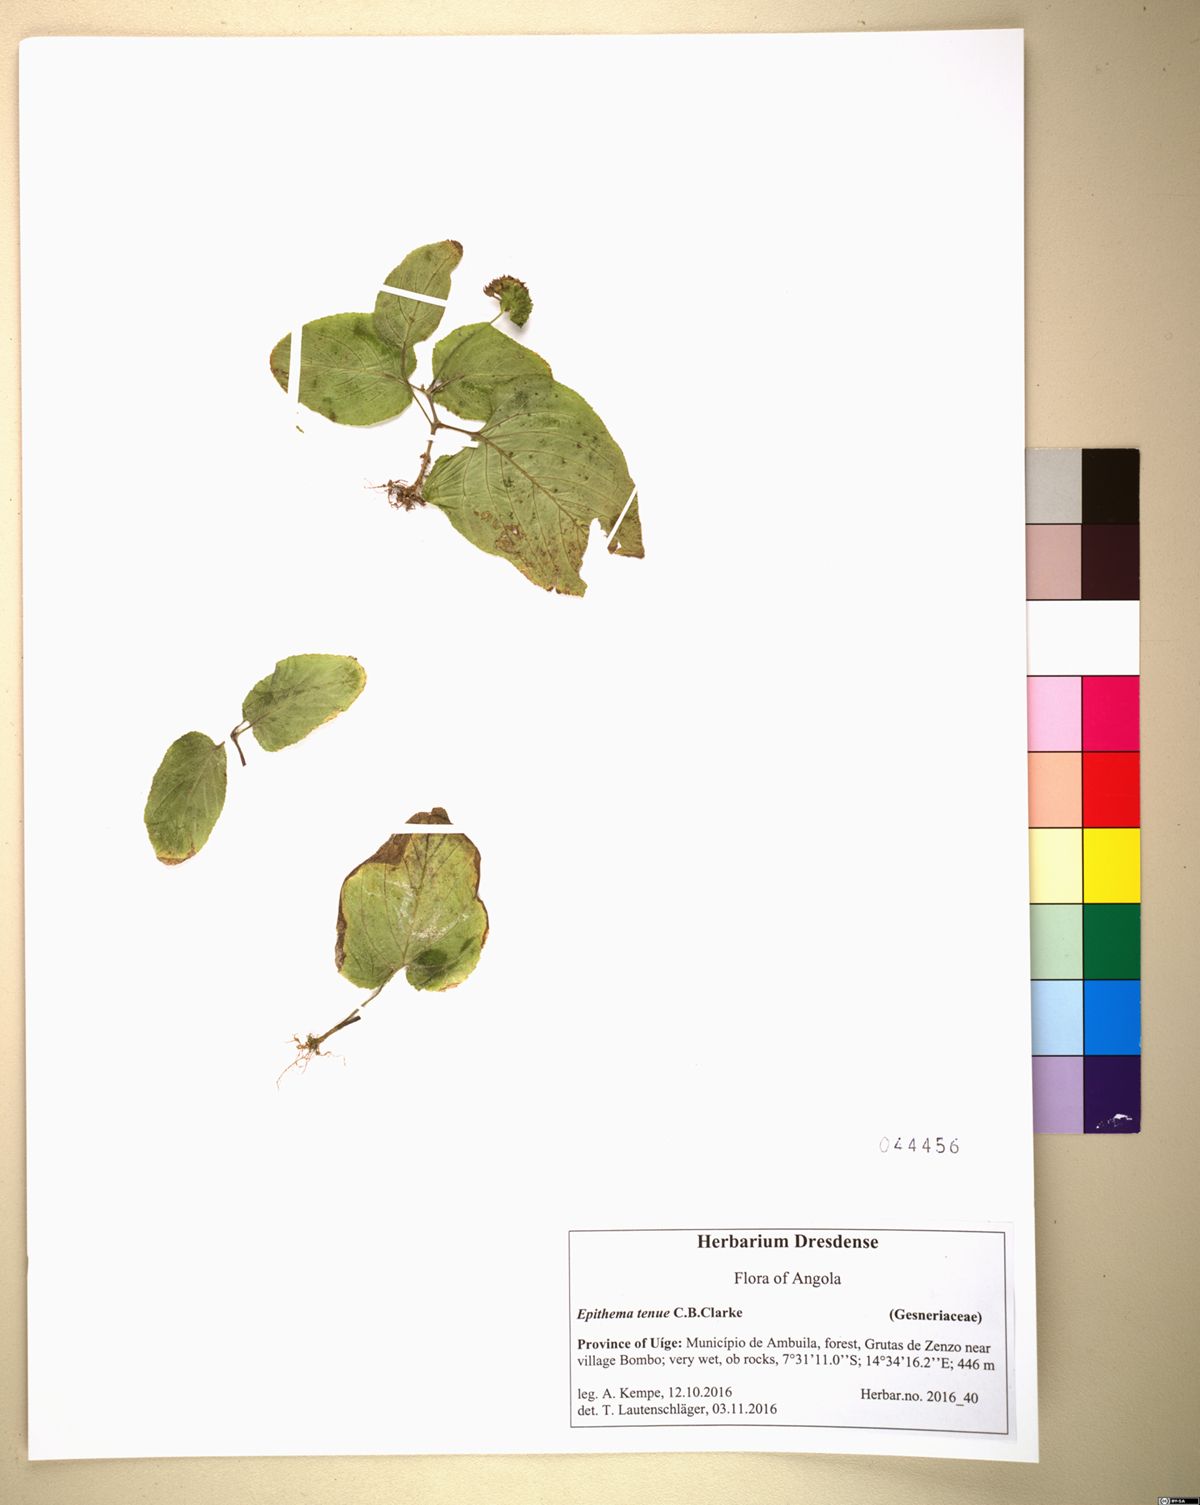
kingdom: Plantae
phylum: Tracheophyta
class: Magnoliopsida
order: Lamiales
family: Gesneriaceae
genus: Epithema
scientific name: Epithema tenue
